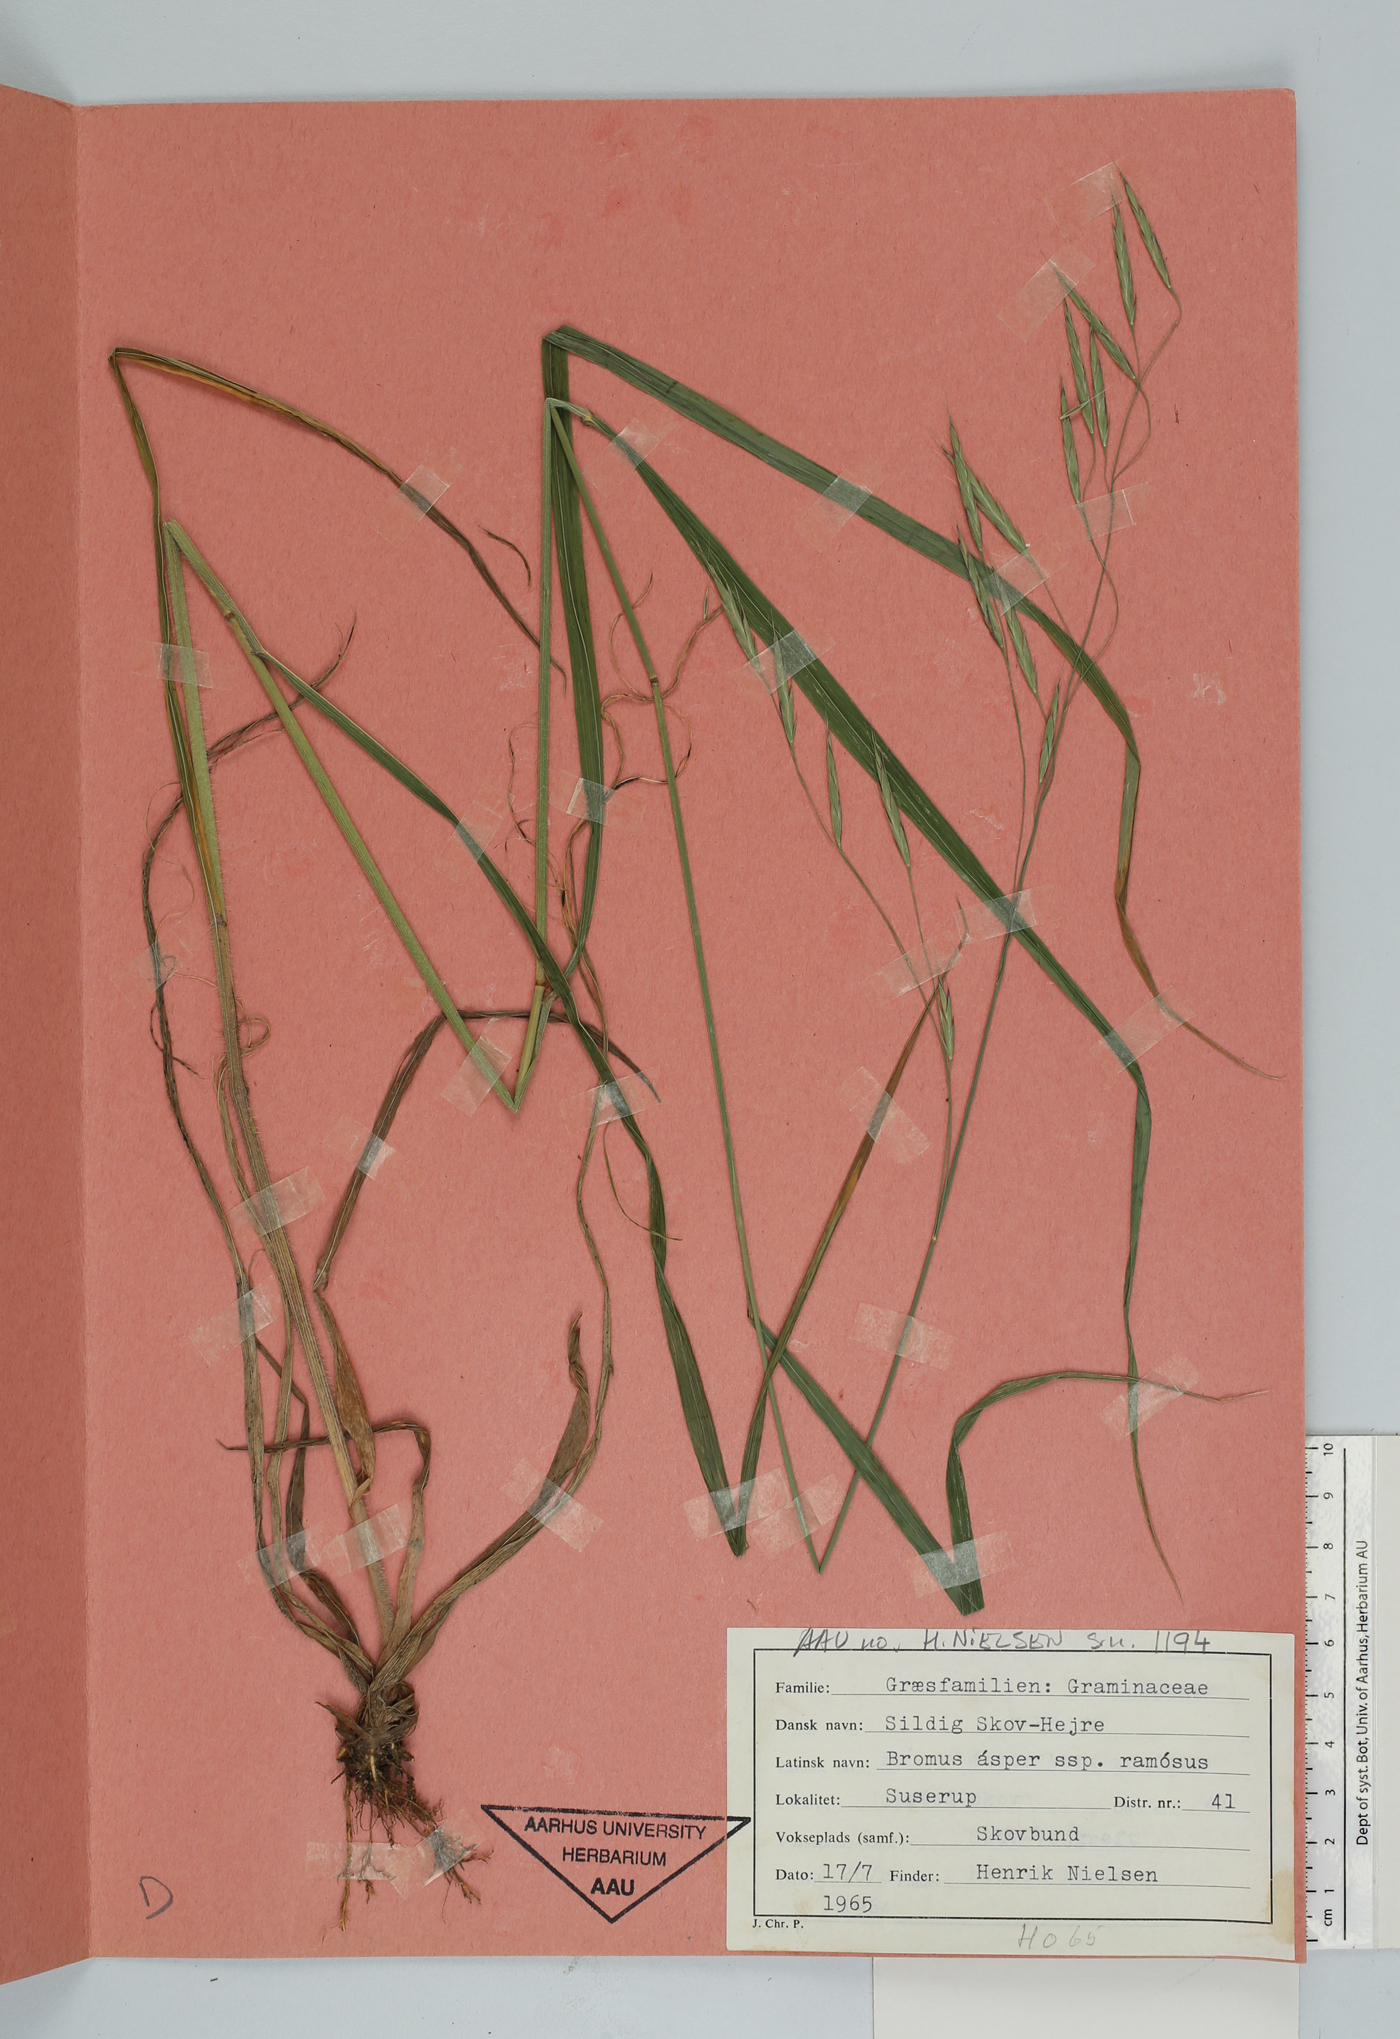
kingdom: Plantae
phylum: Tracheophyta
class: Liliopsida
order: Poales
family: Poaceae
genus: Bromus
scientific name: Bromus ramosus
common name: Hairy brome
